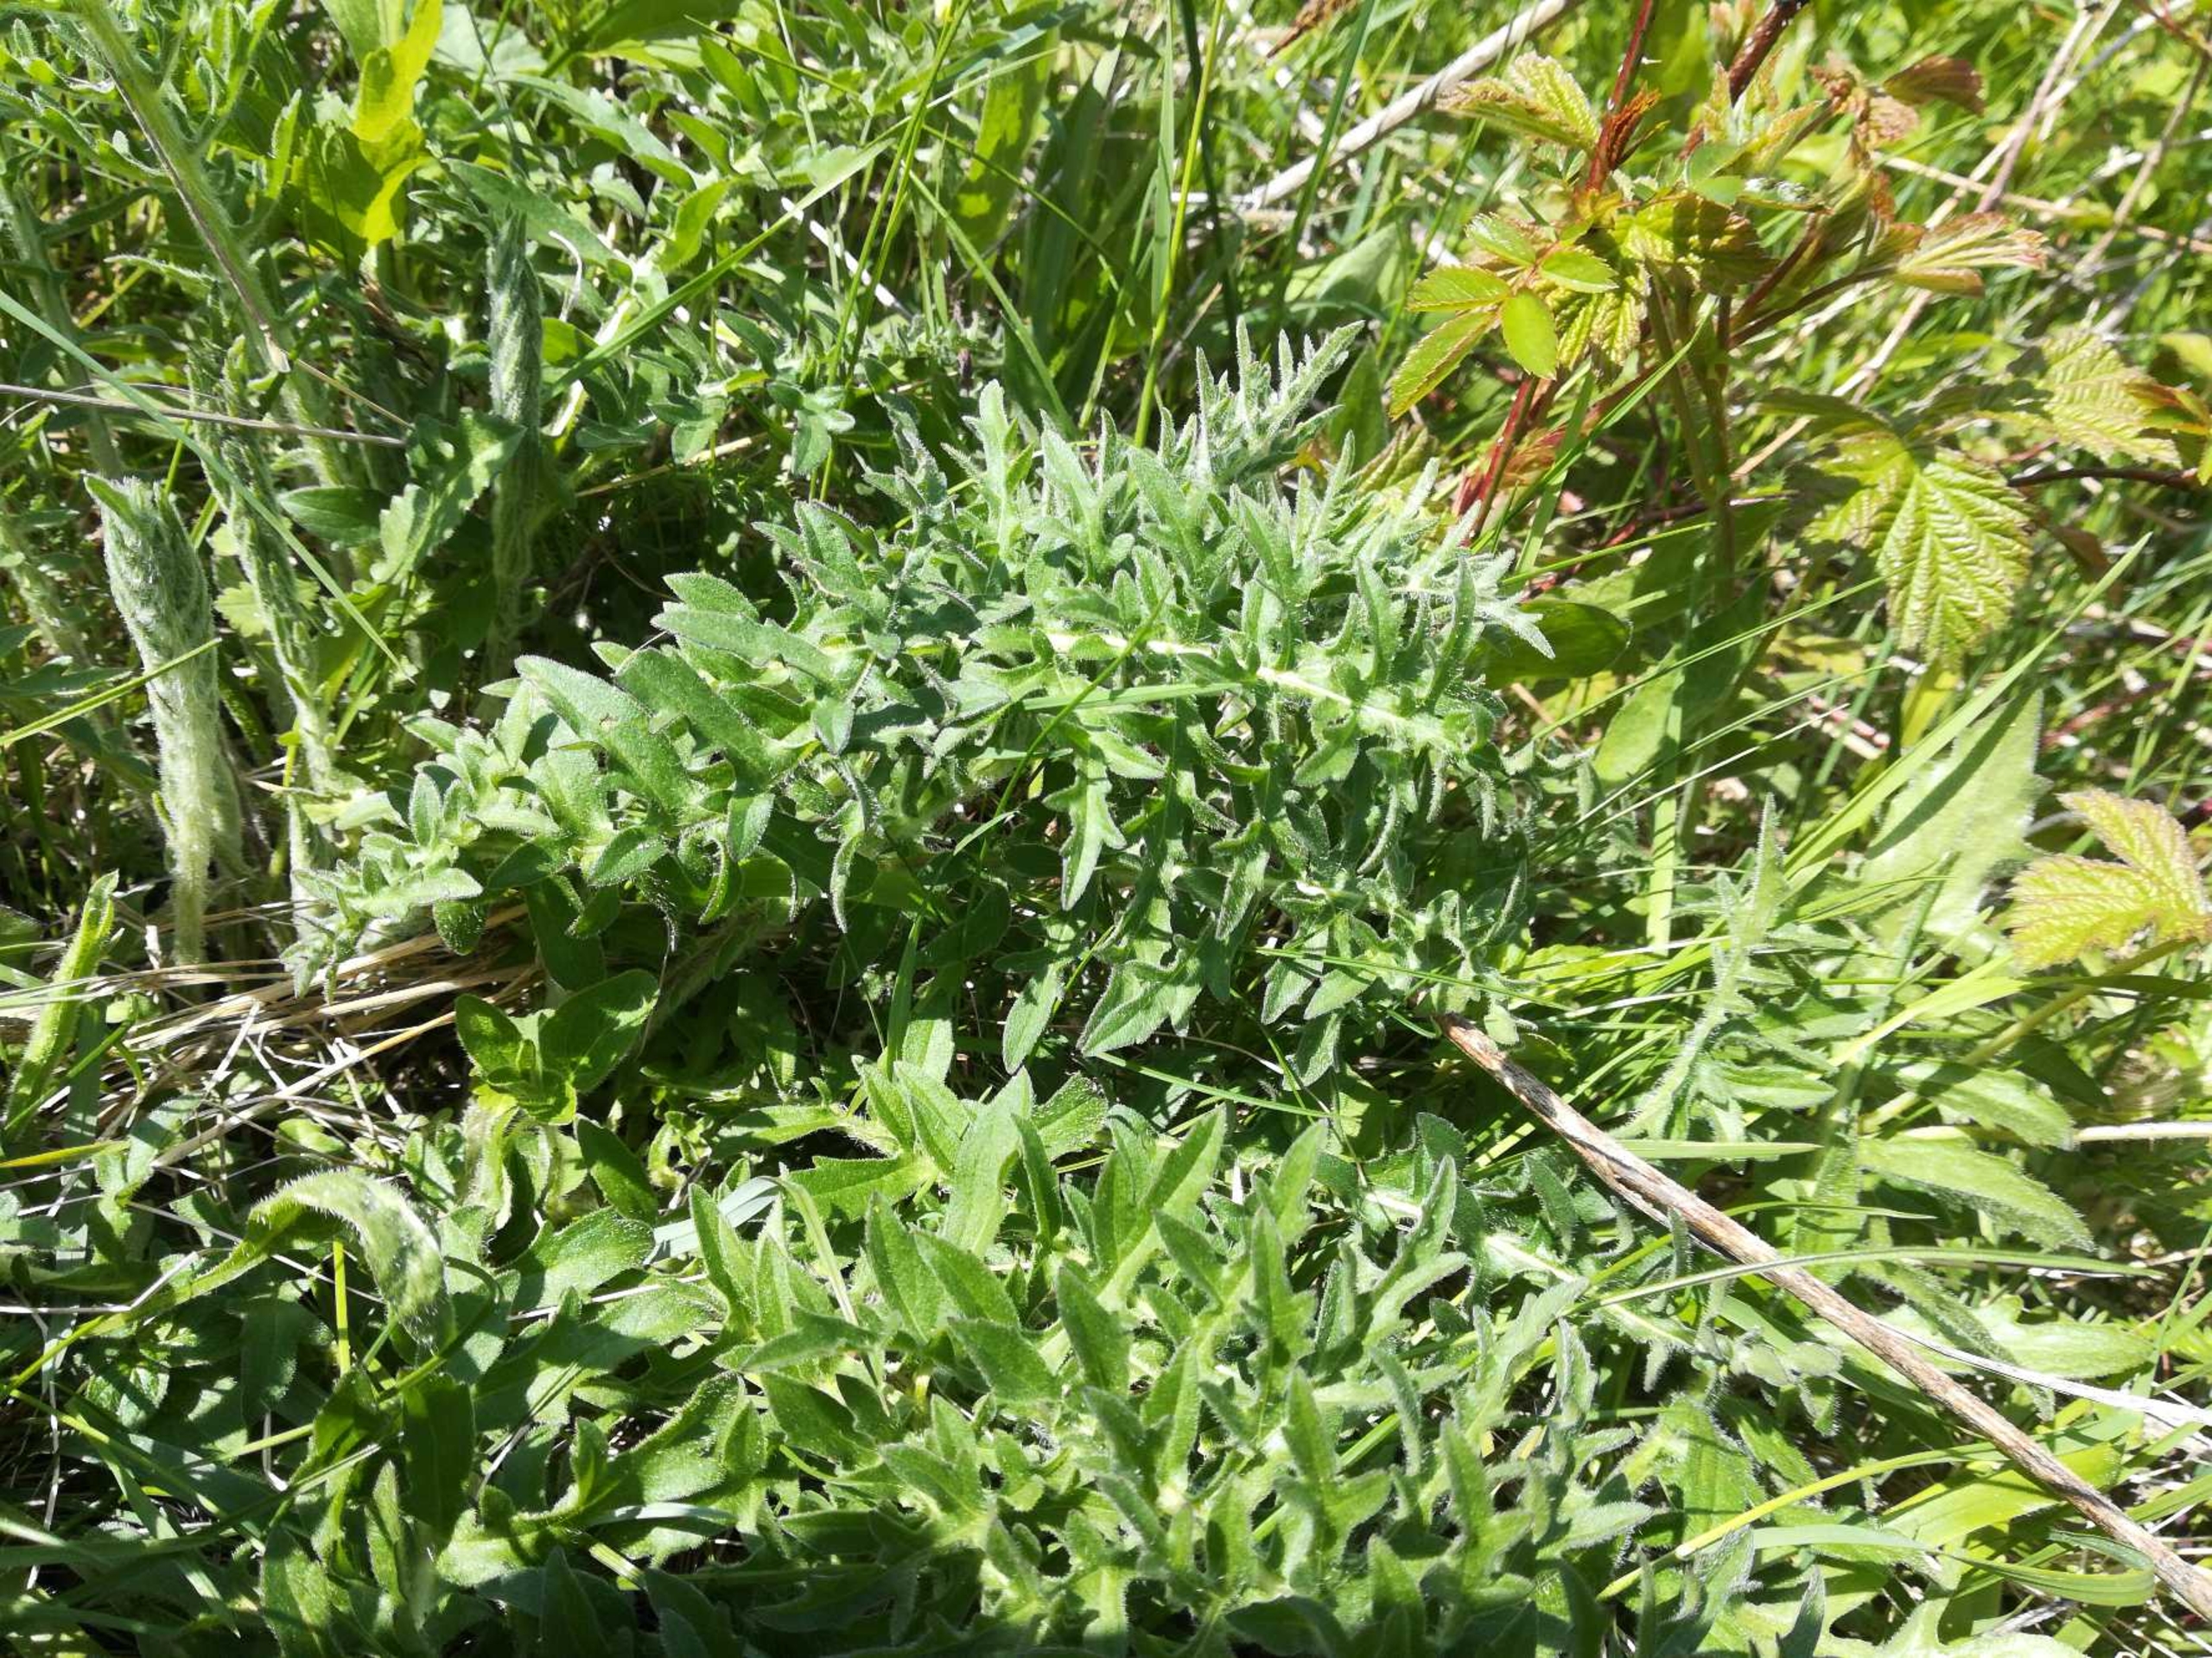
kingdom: Plantae
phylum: Tracheophyta
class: Magnoliopsida
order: Asterales
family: Asteraceae
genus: Centaurea
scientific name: Centaurea scabiosa
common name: Stor knopurt
